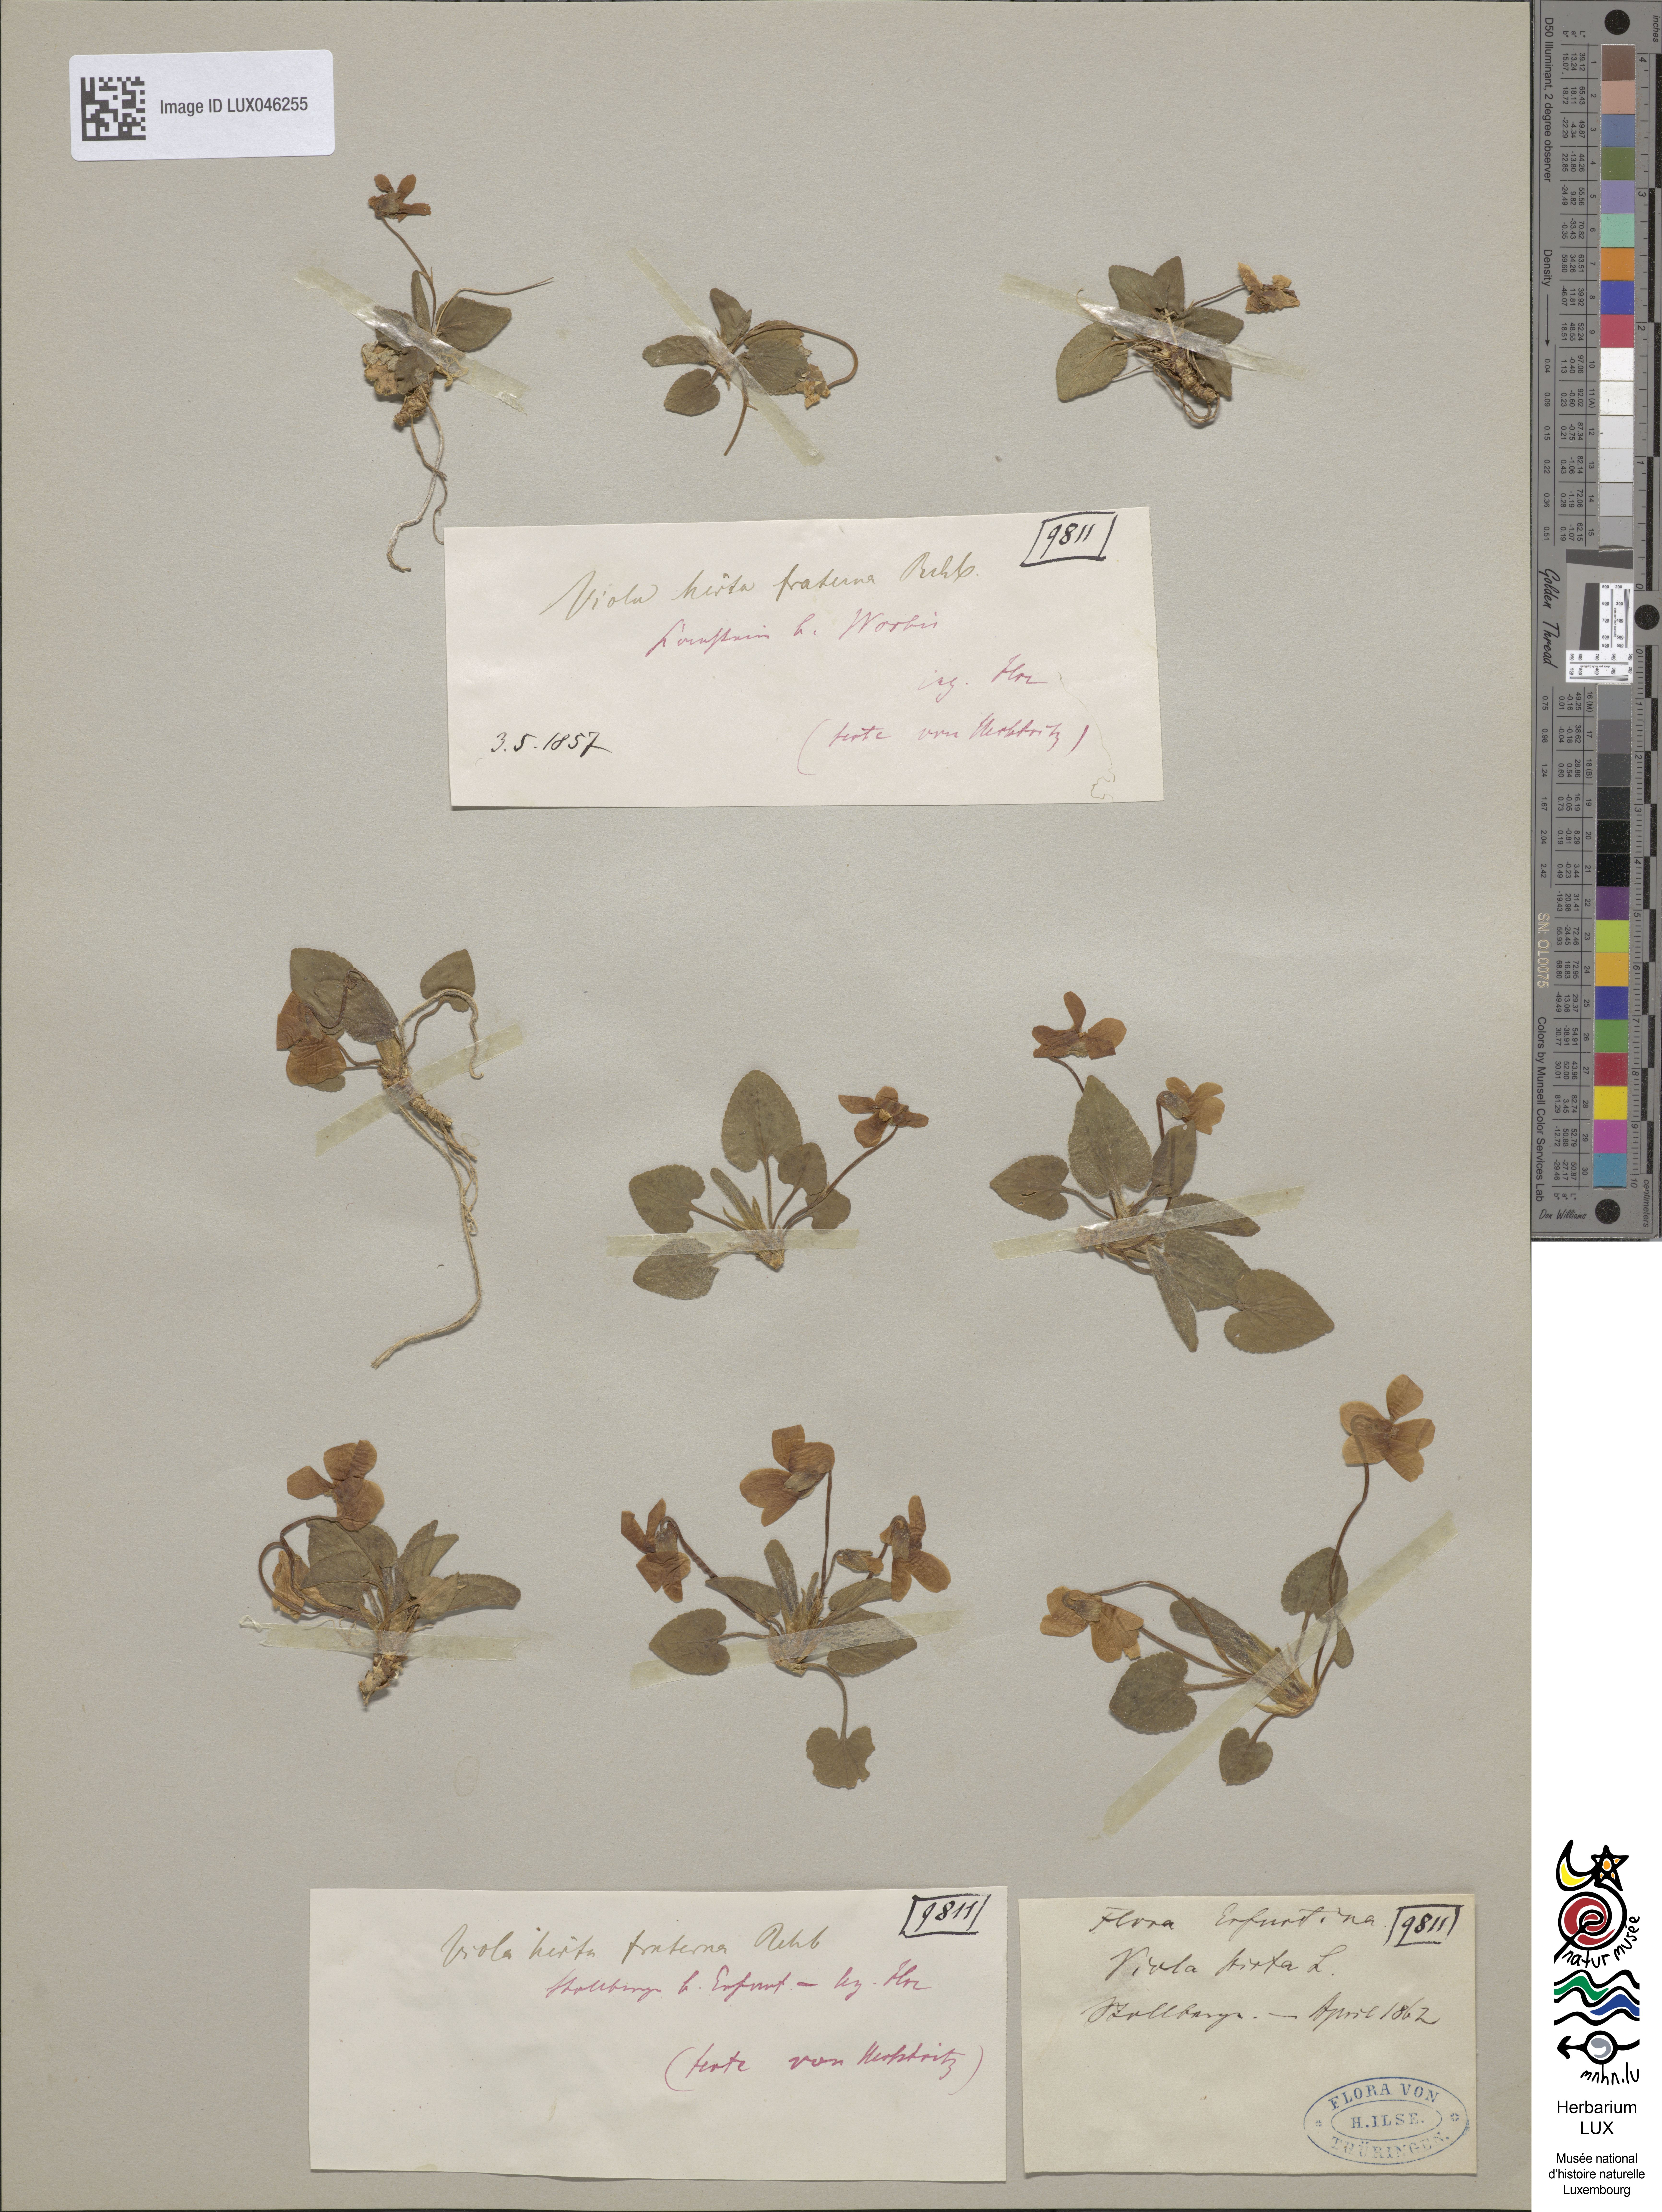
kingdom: Plantae
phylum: Tracheophyta
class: Magnoliopsida
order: Malpighiales
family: Violaceae
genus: Viola
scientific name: Viola hirta
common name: Hairy violet
